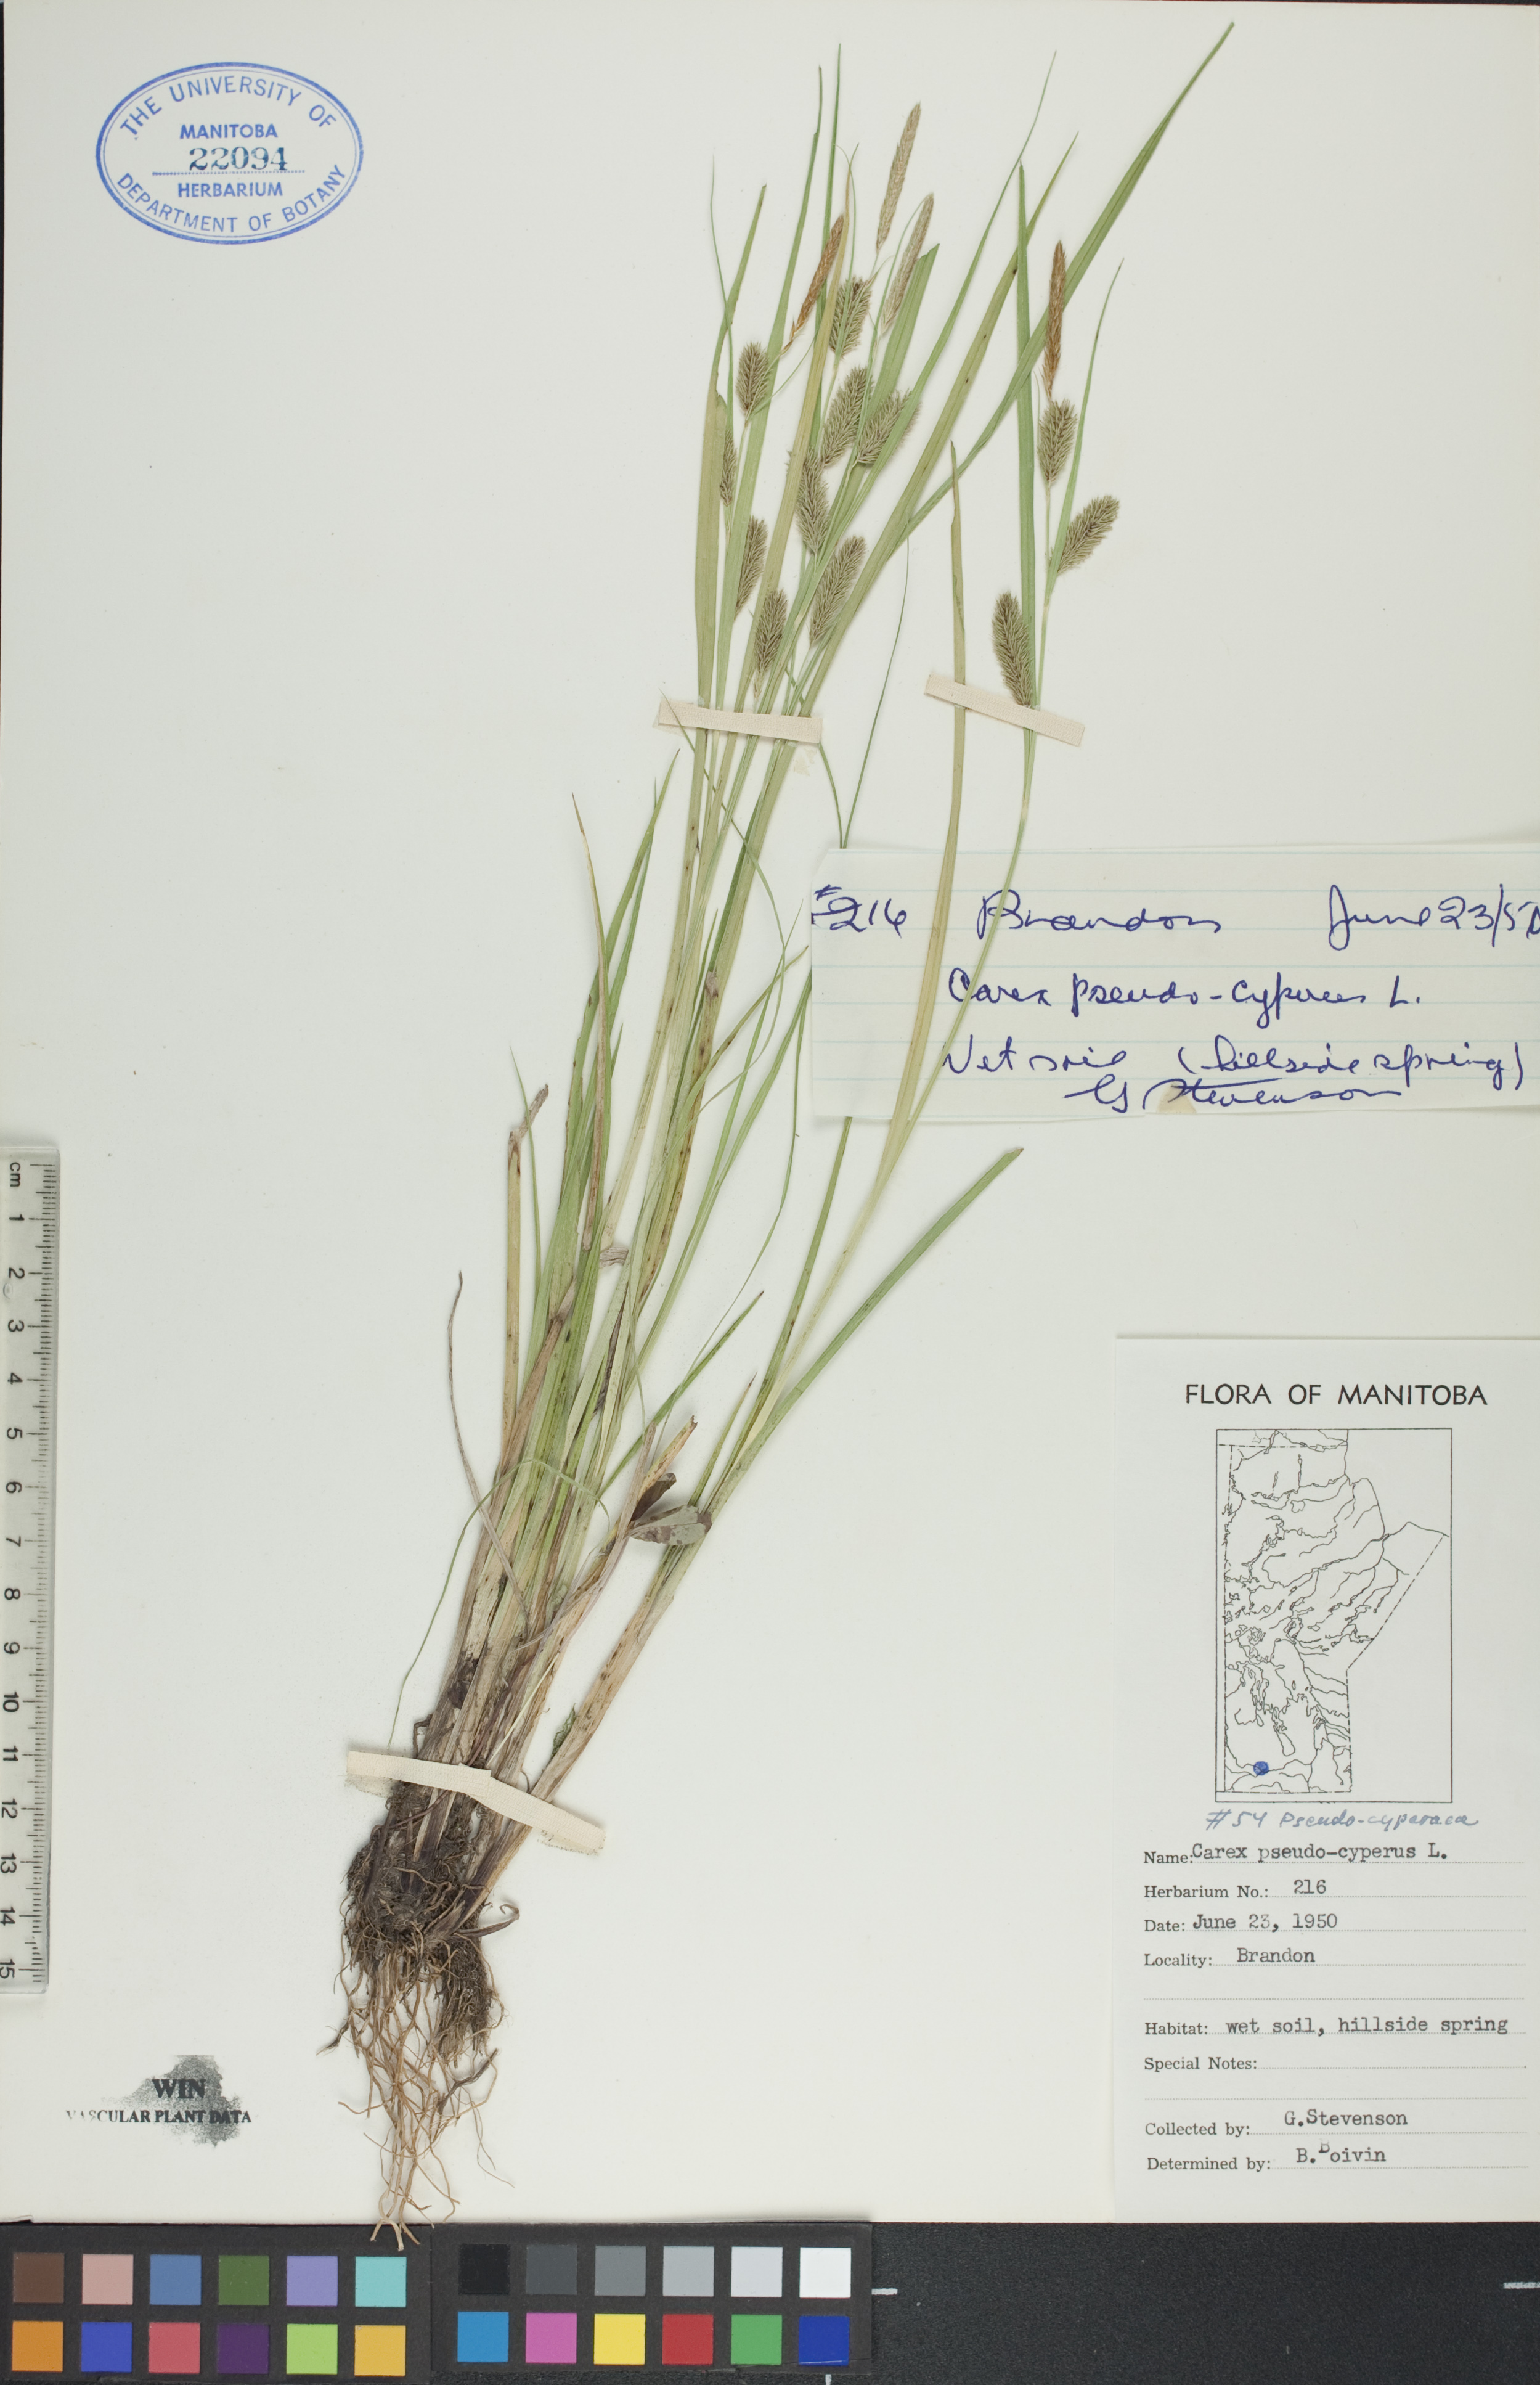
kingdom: Plantae
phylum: Tracheophyta
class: Liliopsida
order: Poales
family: Cyperaceae
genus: Carex
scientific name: Carex pseudocyperus
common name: Cyperus sedge
